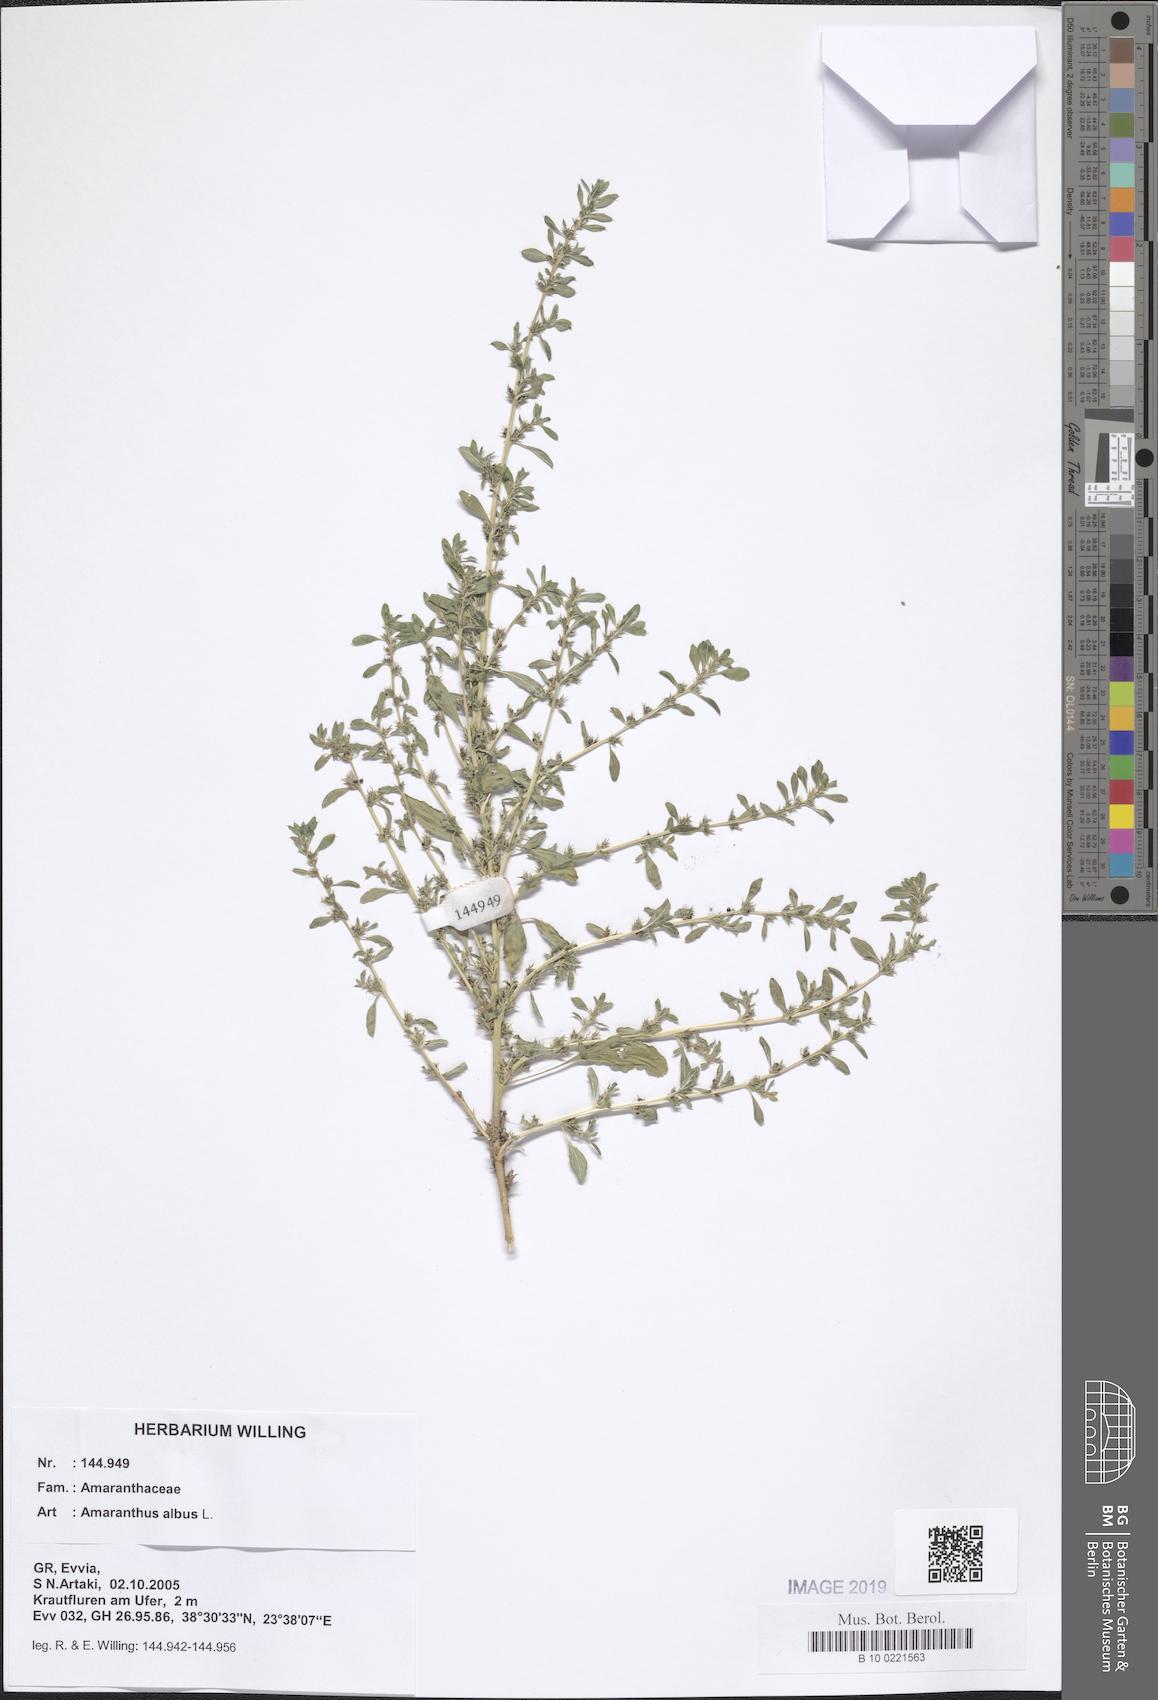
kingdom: Plantae
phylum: Tracheophyta
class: Magnoliopsida
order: Caryophyllales
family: Amaranthaceae
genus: Amaranthus
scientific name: Amaranthus albus
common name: White pigweed
